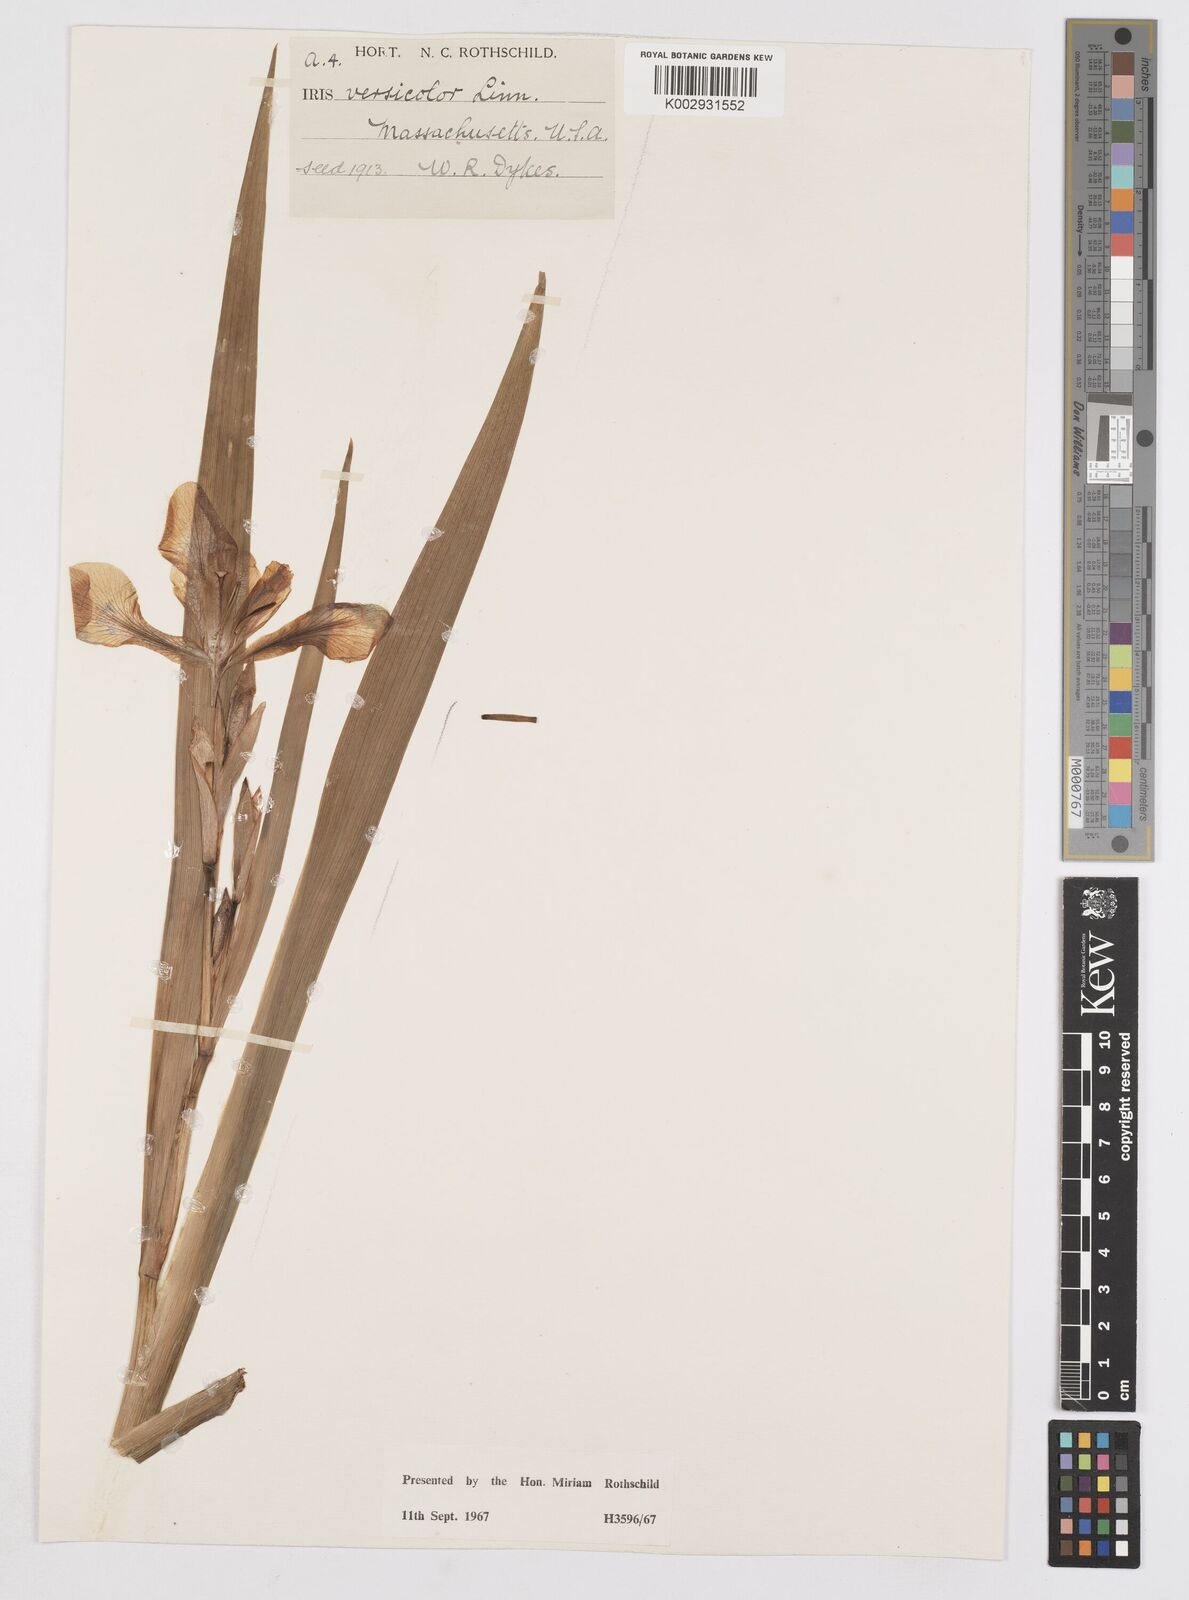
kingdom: Plantae
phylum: Tracheophyta
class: Liliopsida
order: Asparagales
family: Iridaceae
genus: Iris
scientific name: Iris versicolor
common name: Purple iris
